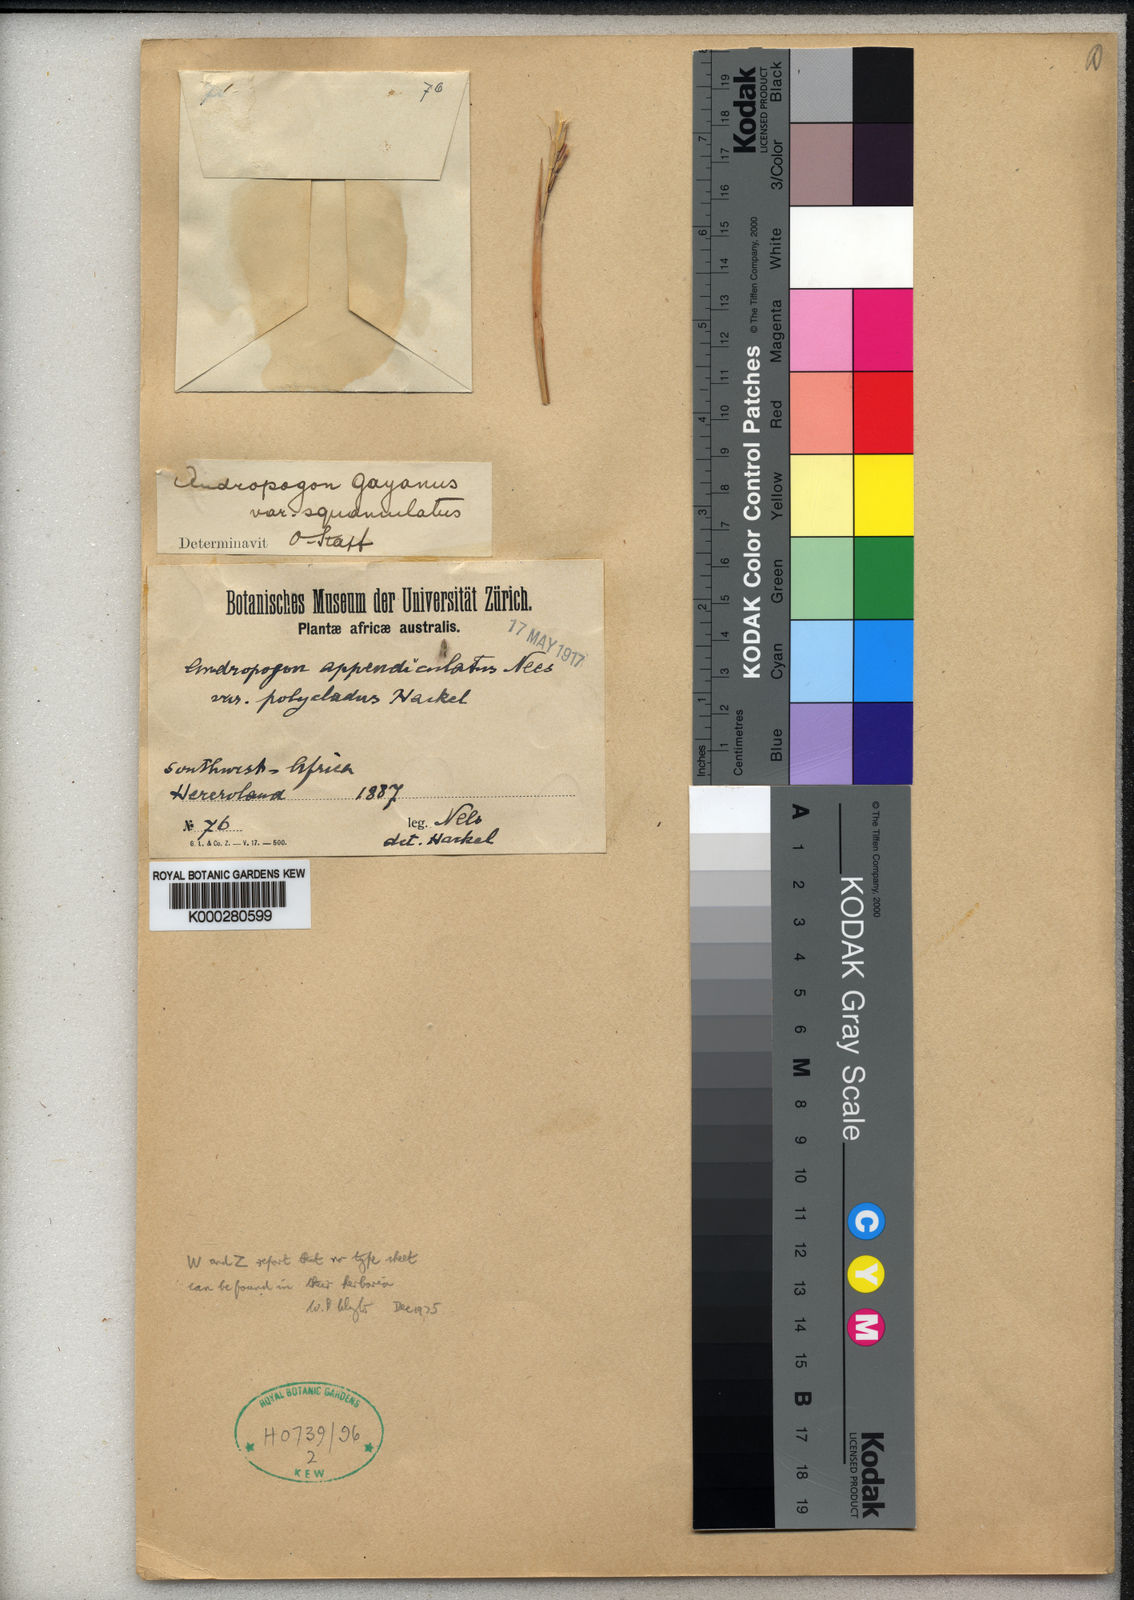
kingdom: Plantae
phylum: Tracheophyta
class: Liliopsida
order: Poales
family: Poaceae
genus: Andropogon
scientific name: Andropogon gayanus
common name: Tambuki grass
